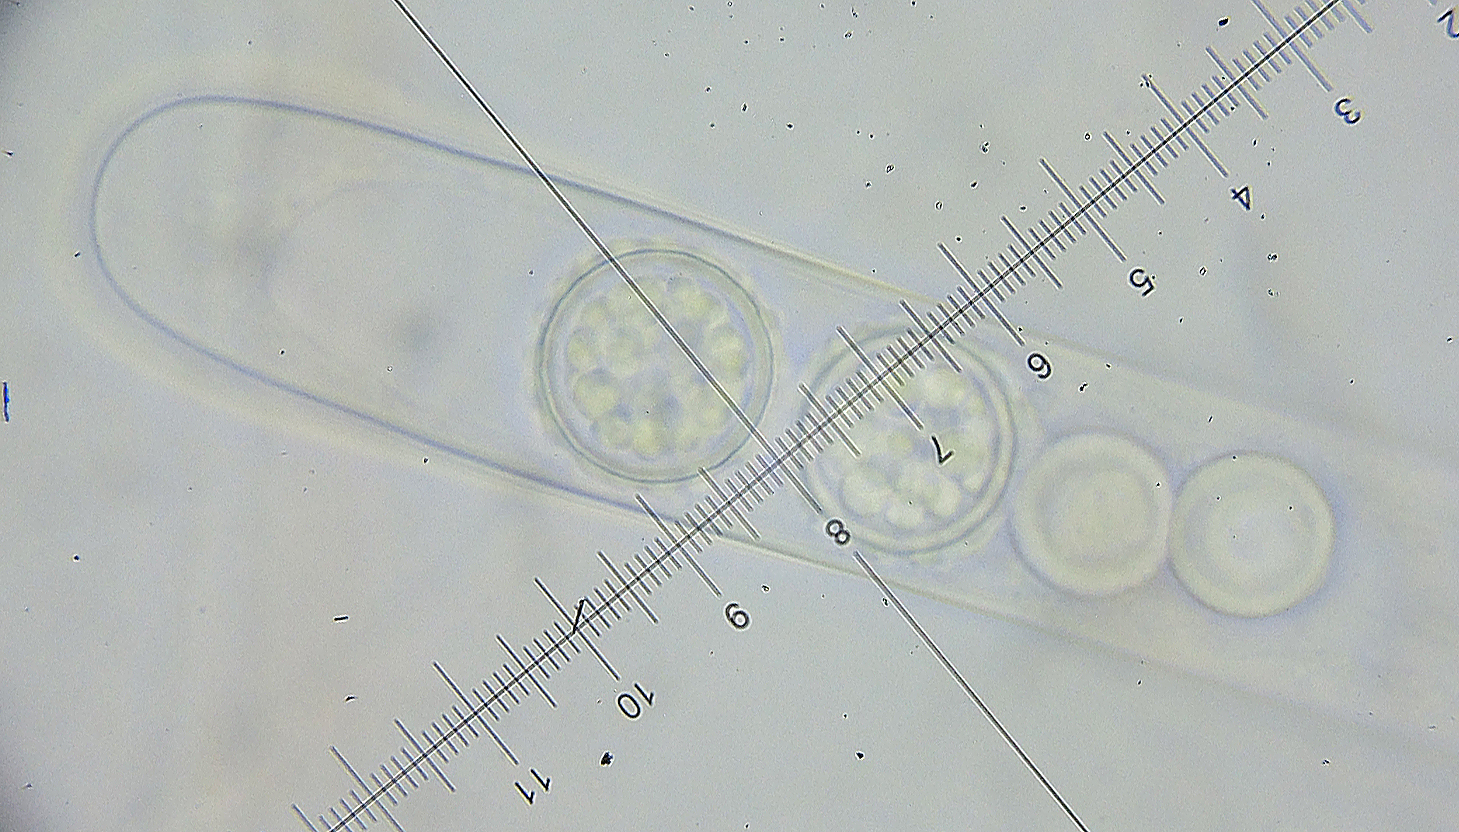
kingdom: Fungi
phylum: Ascomycota
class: Pezizomycetes
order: Pezizales
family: Pyronemataceae
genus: Scutellinia
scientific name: Scutellinia barlae
